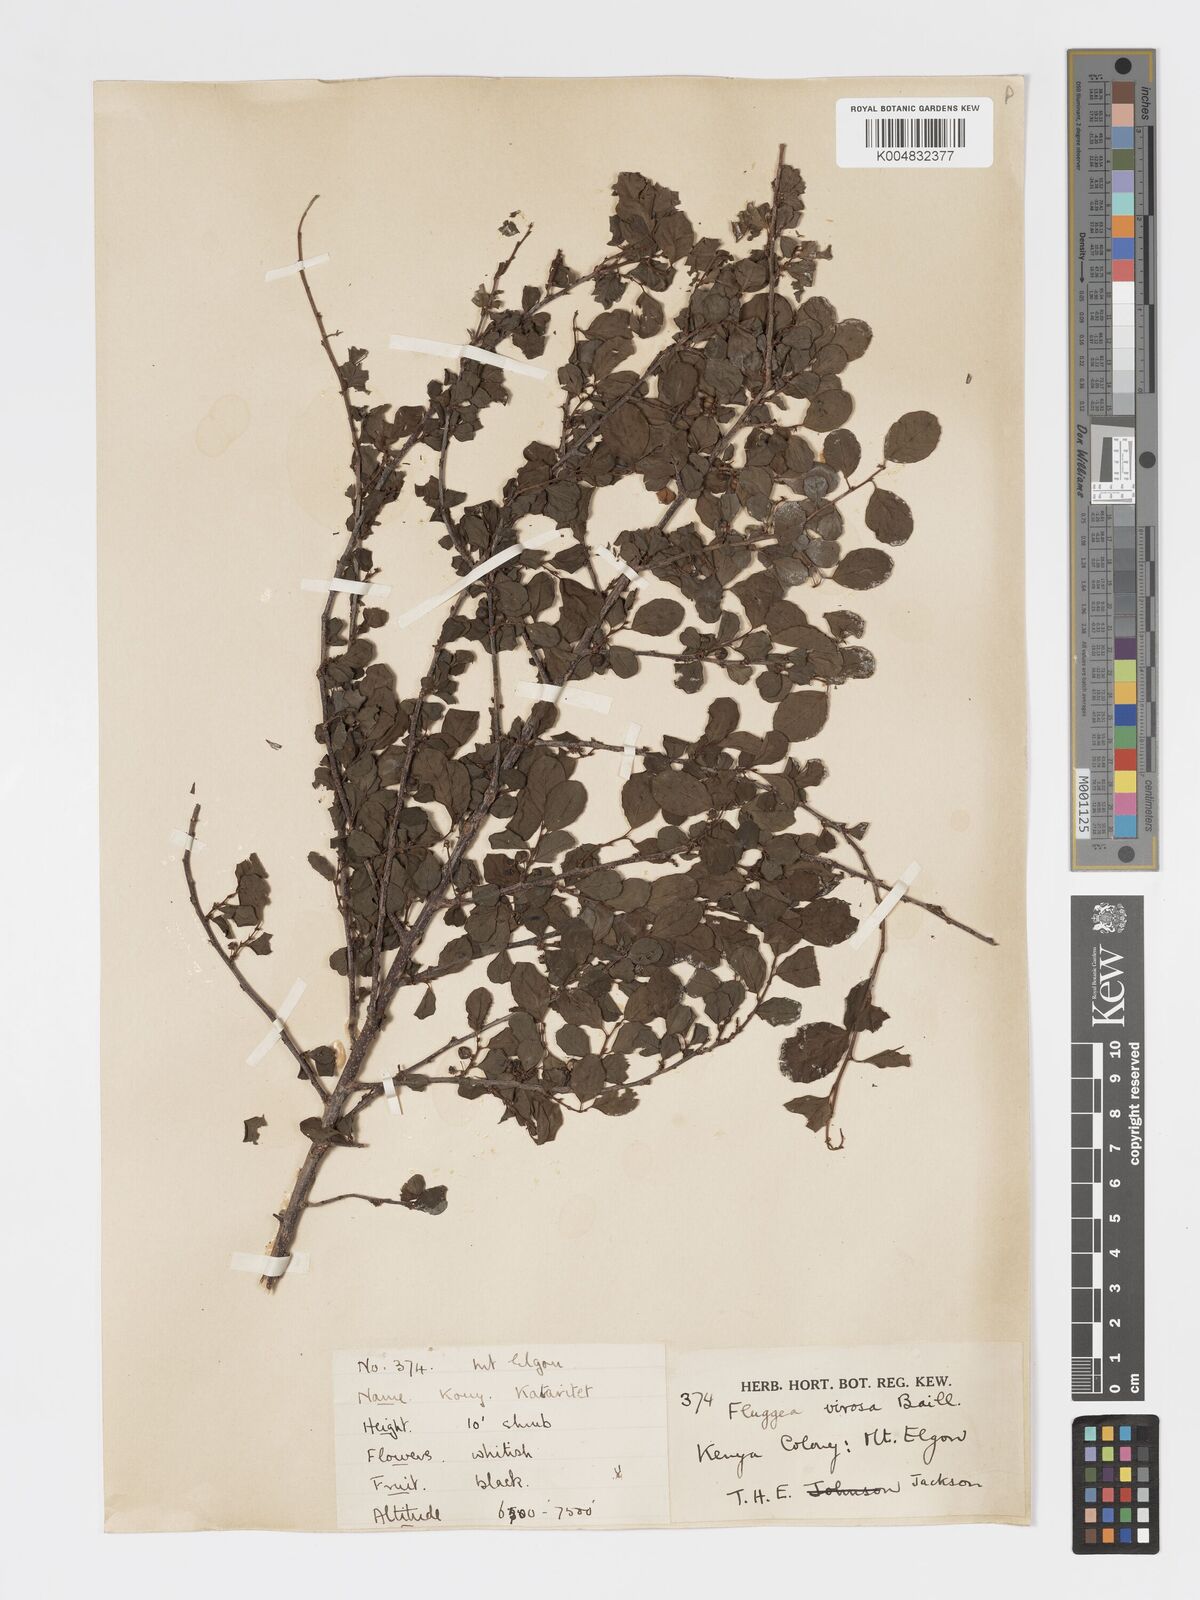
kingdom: Plantae
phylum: Tracheophyta
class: Magnoliopsida
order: Malpighiales
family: Phyllanthaceae
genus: Flueggea
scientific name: Flueggea virosa
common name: Common bushweed
